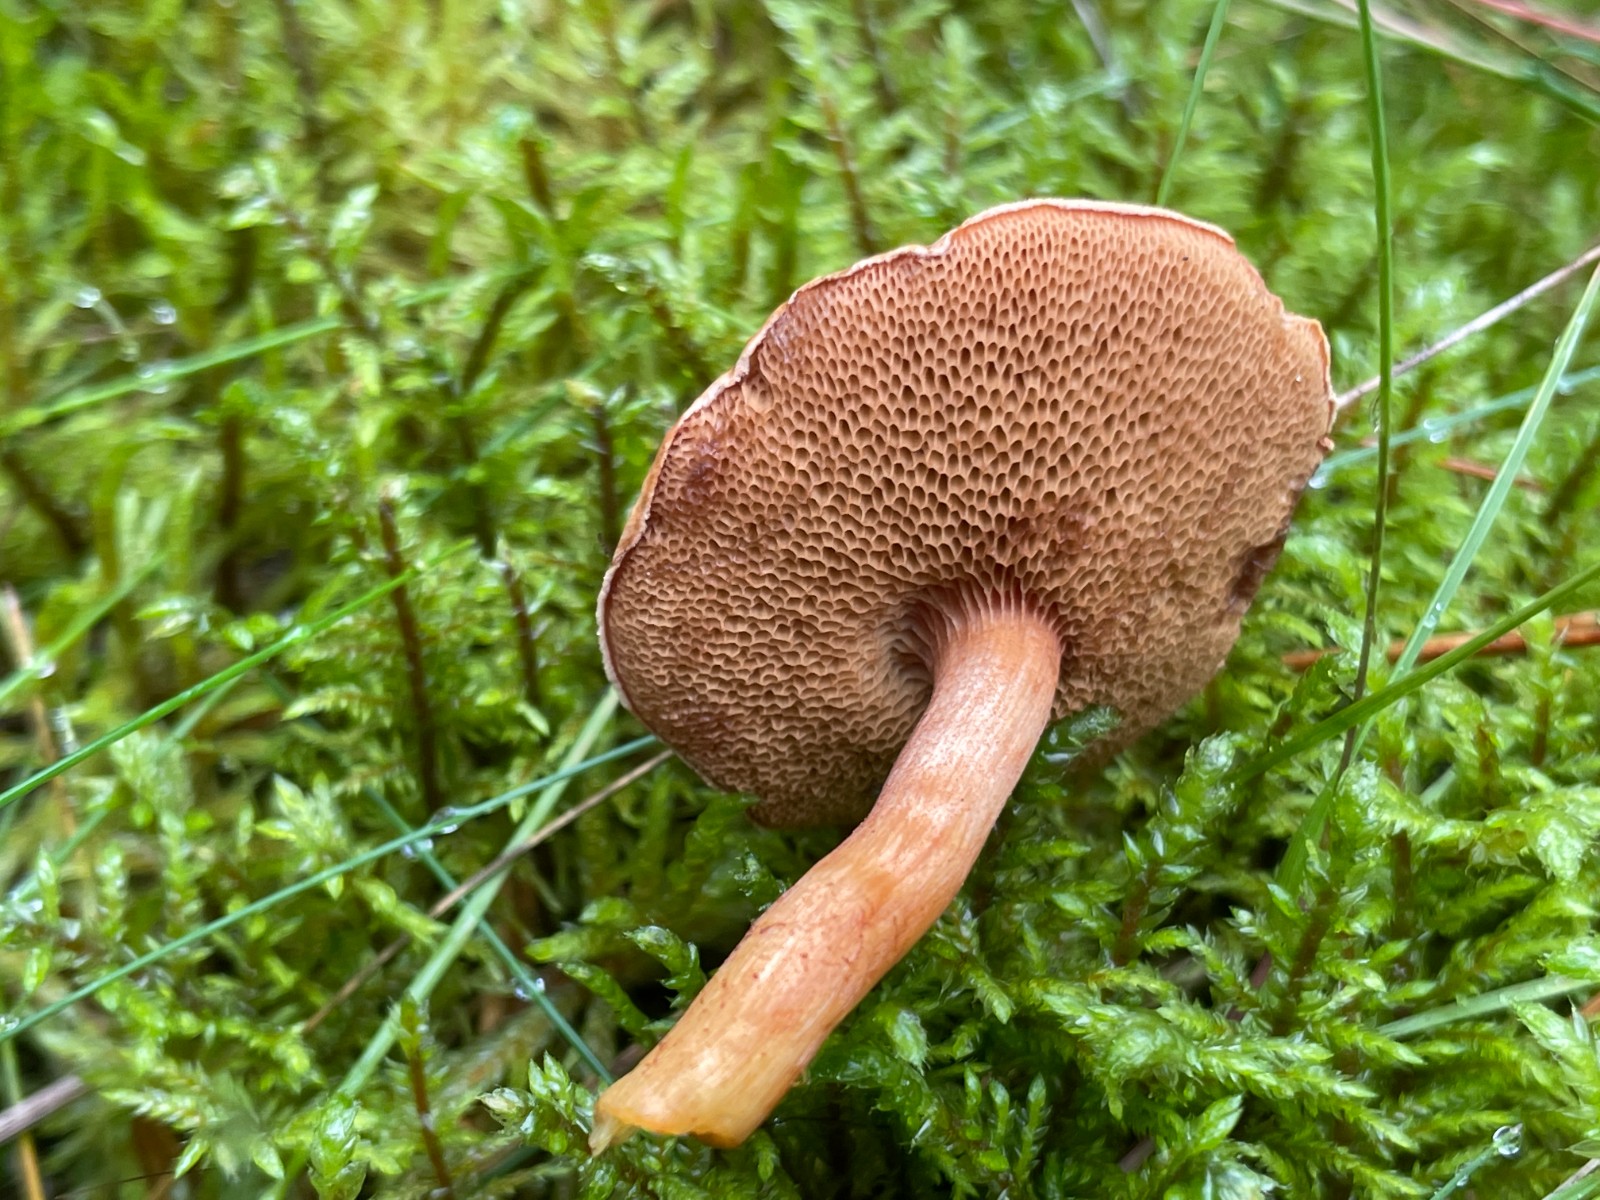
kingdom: Fungi
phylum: Basidiomycota
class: Agaricomycetes
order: Boletales
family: Boletaceae
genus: Chalciporus
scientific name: Chalciporus piperatus
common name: peberrørhat
